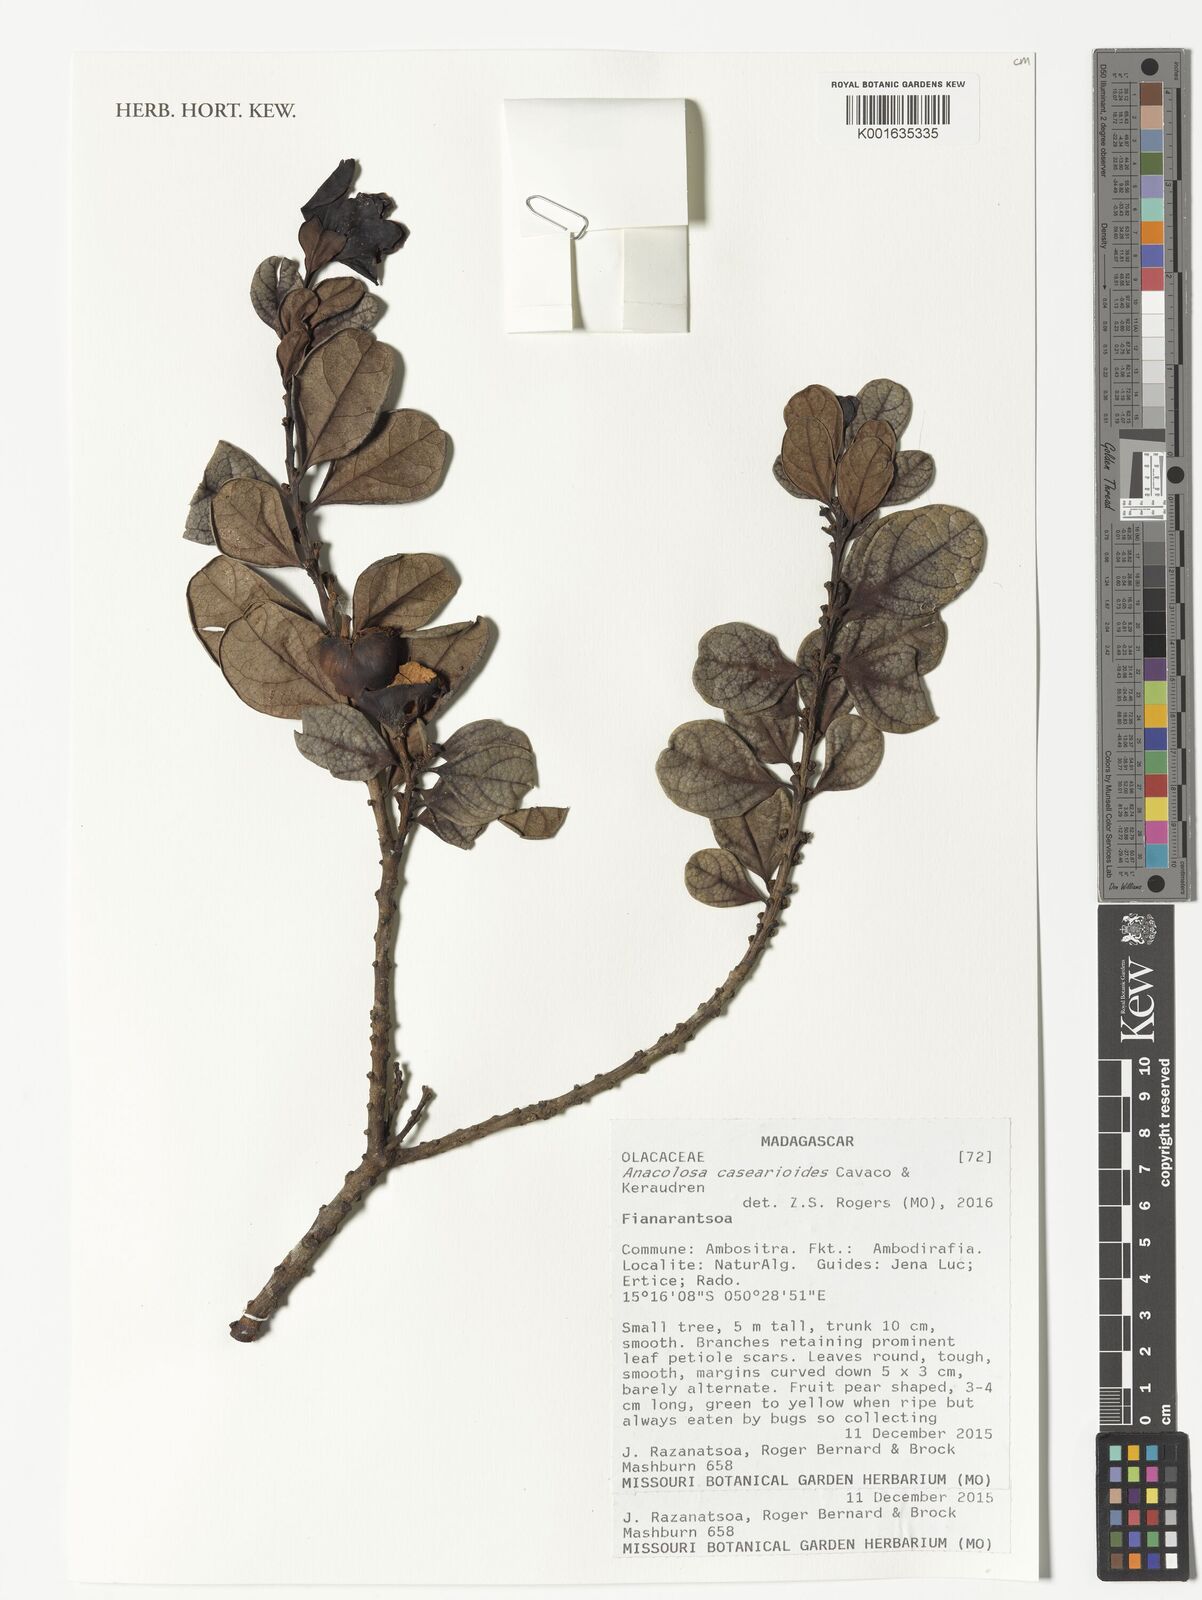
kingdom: Plantae
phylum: Tracheophyta
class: Magnoliopsida
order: Santalales
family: Aptandraceae
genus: Anacolosa
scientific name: Anacolosa casearioides
